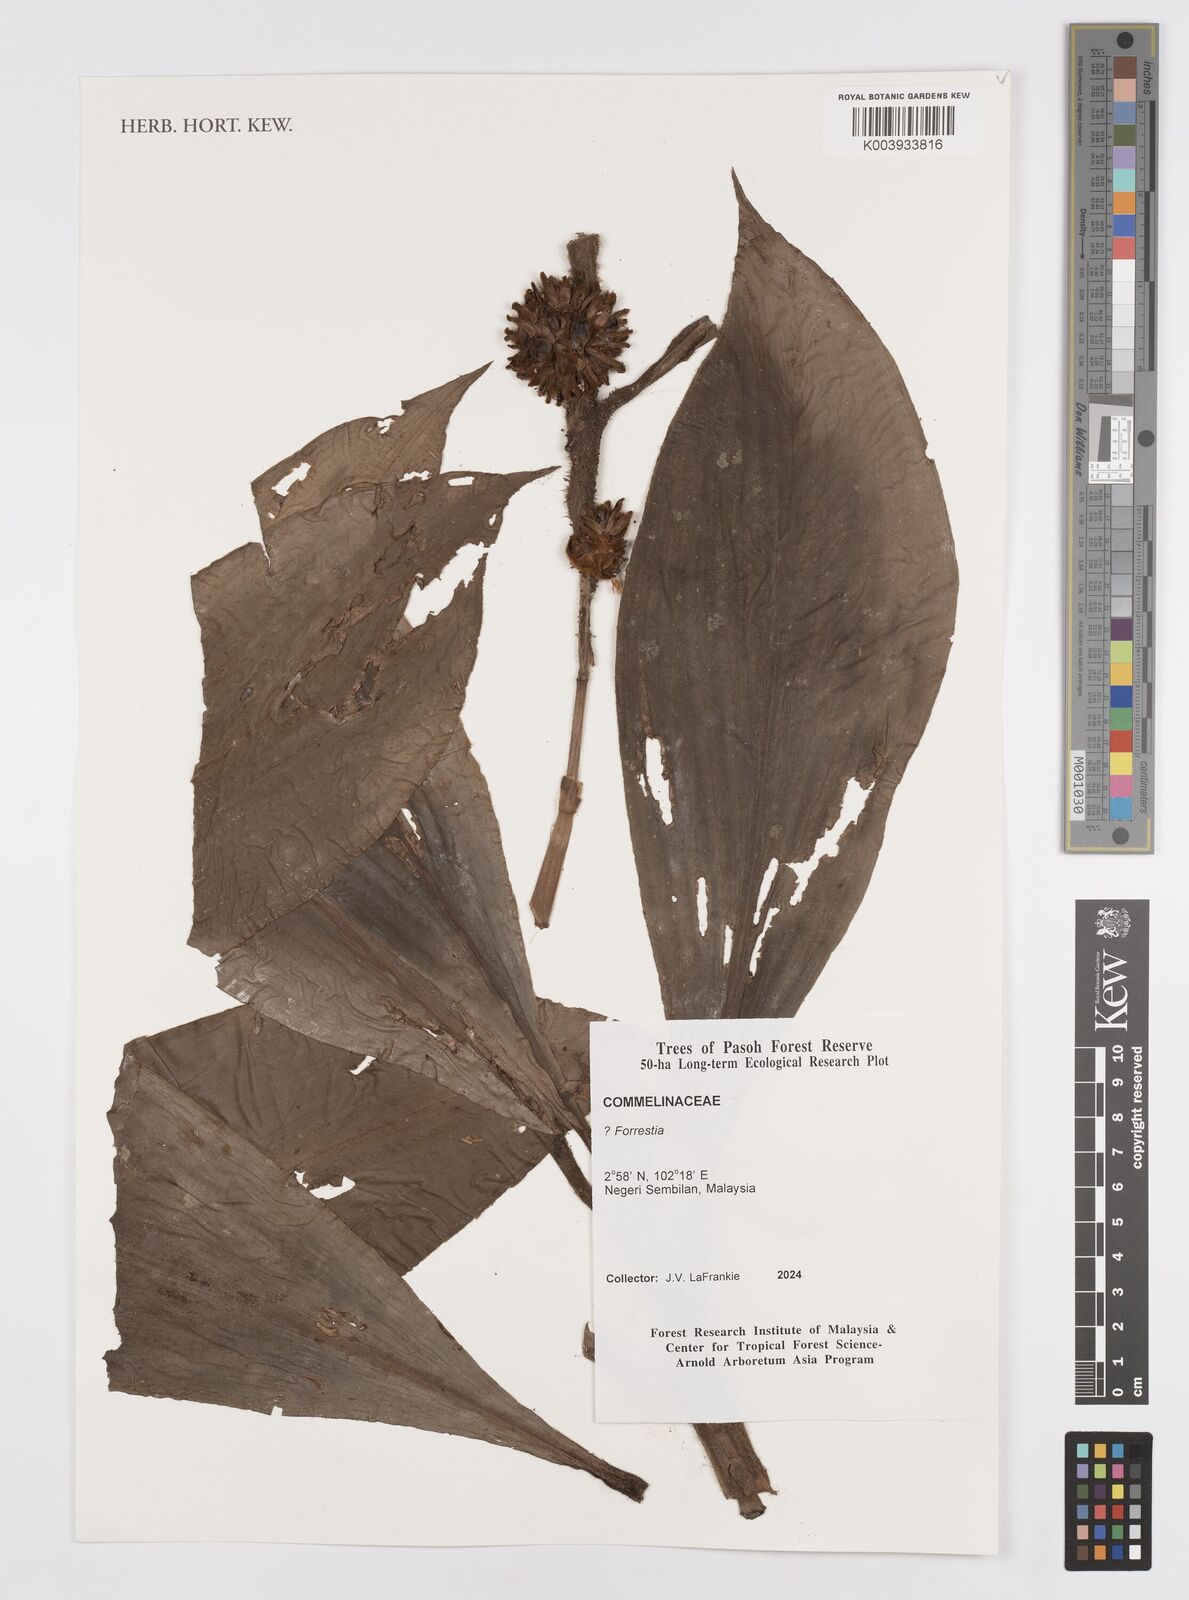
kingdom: Plantae
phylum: Tracheophyta
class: Liliopsida
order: Commelinales
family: Commelinaceae
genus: Amischotolype
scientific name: Amischotolype
